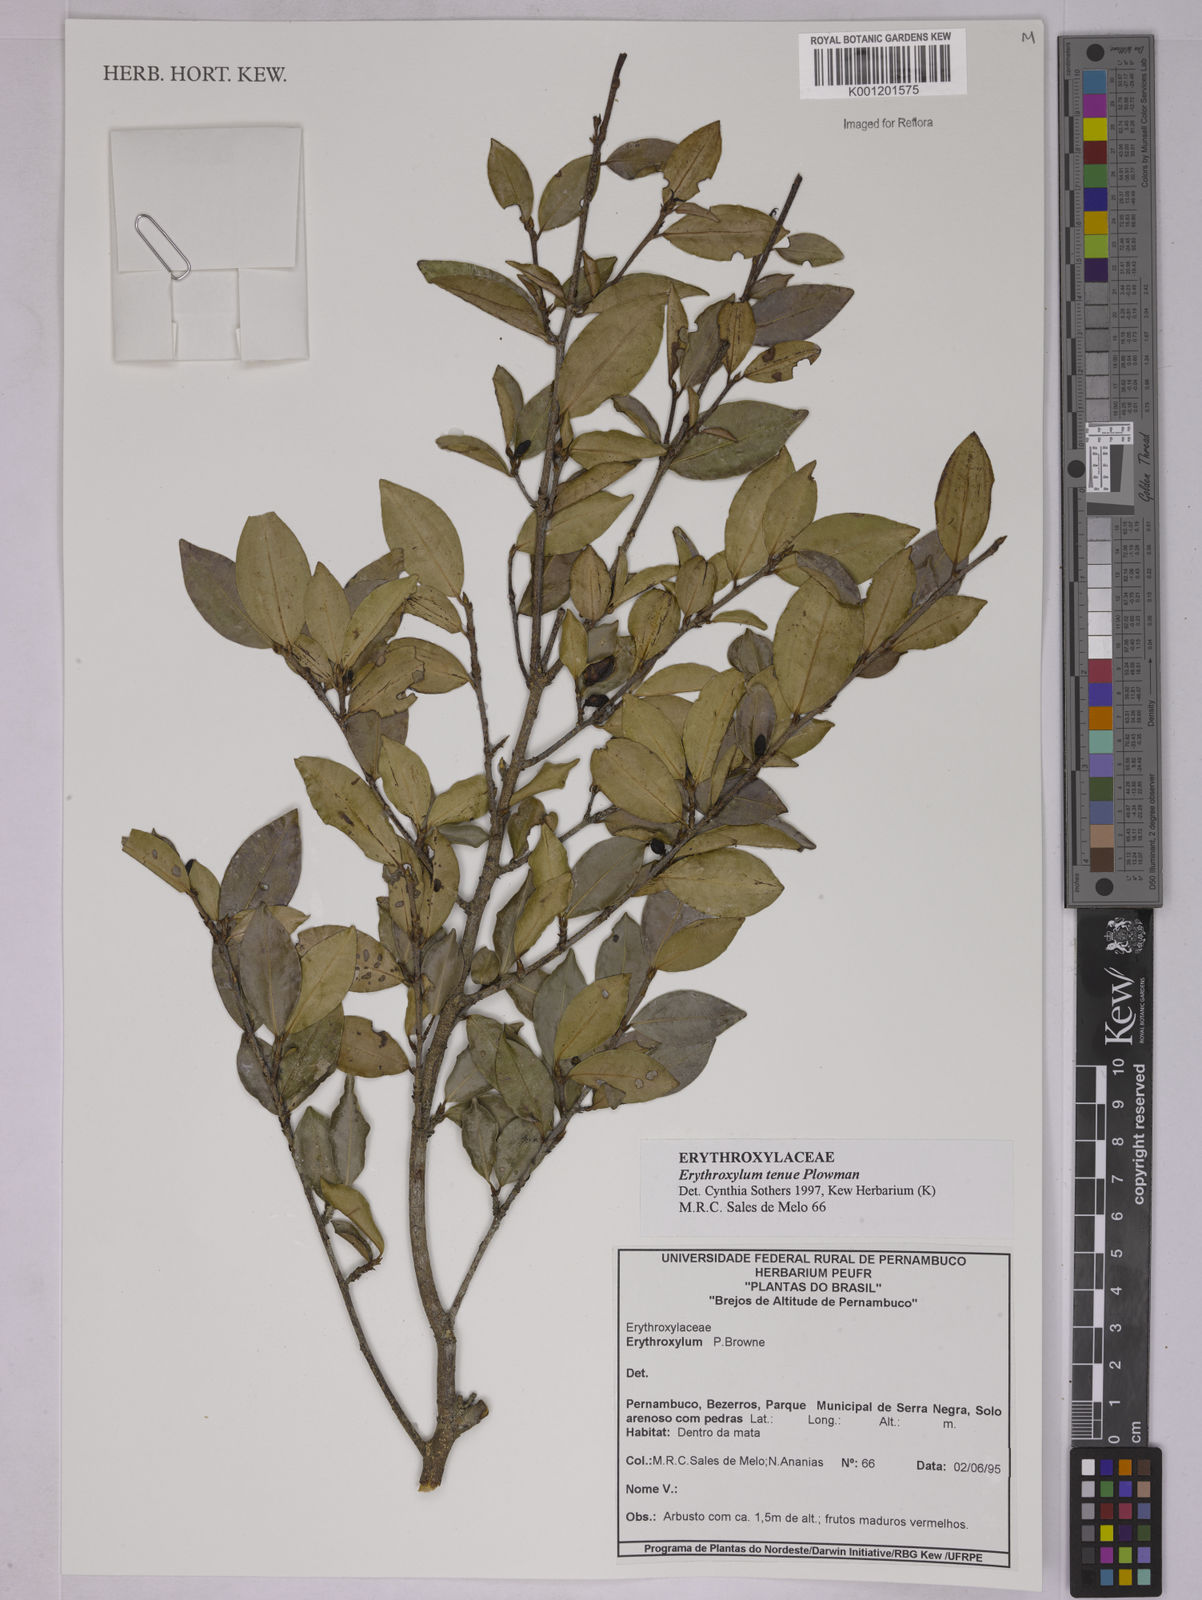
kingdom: Plantae
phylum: Tracheophyta
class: Magnoliopsida
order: Malpighiales
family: Erythroxylaceae
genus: Erythroxylum
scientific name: Erythroxylum tenue
